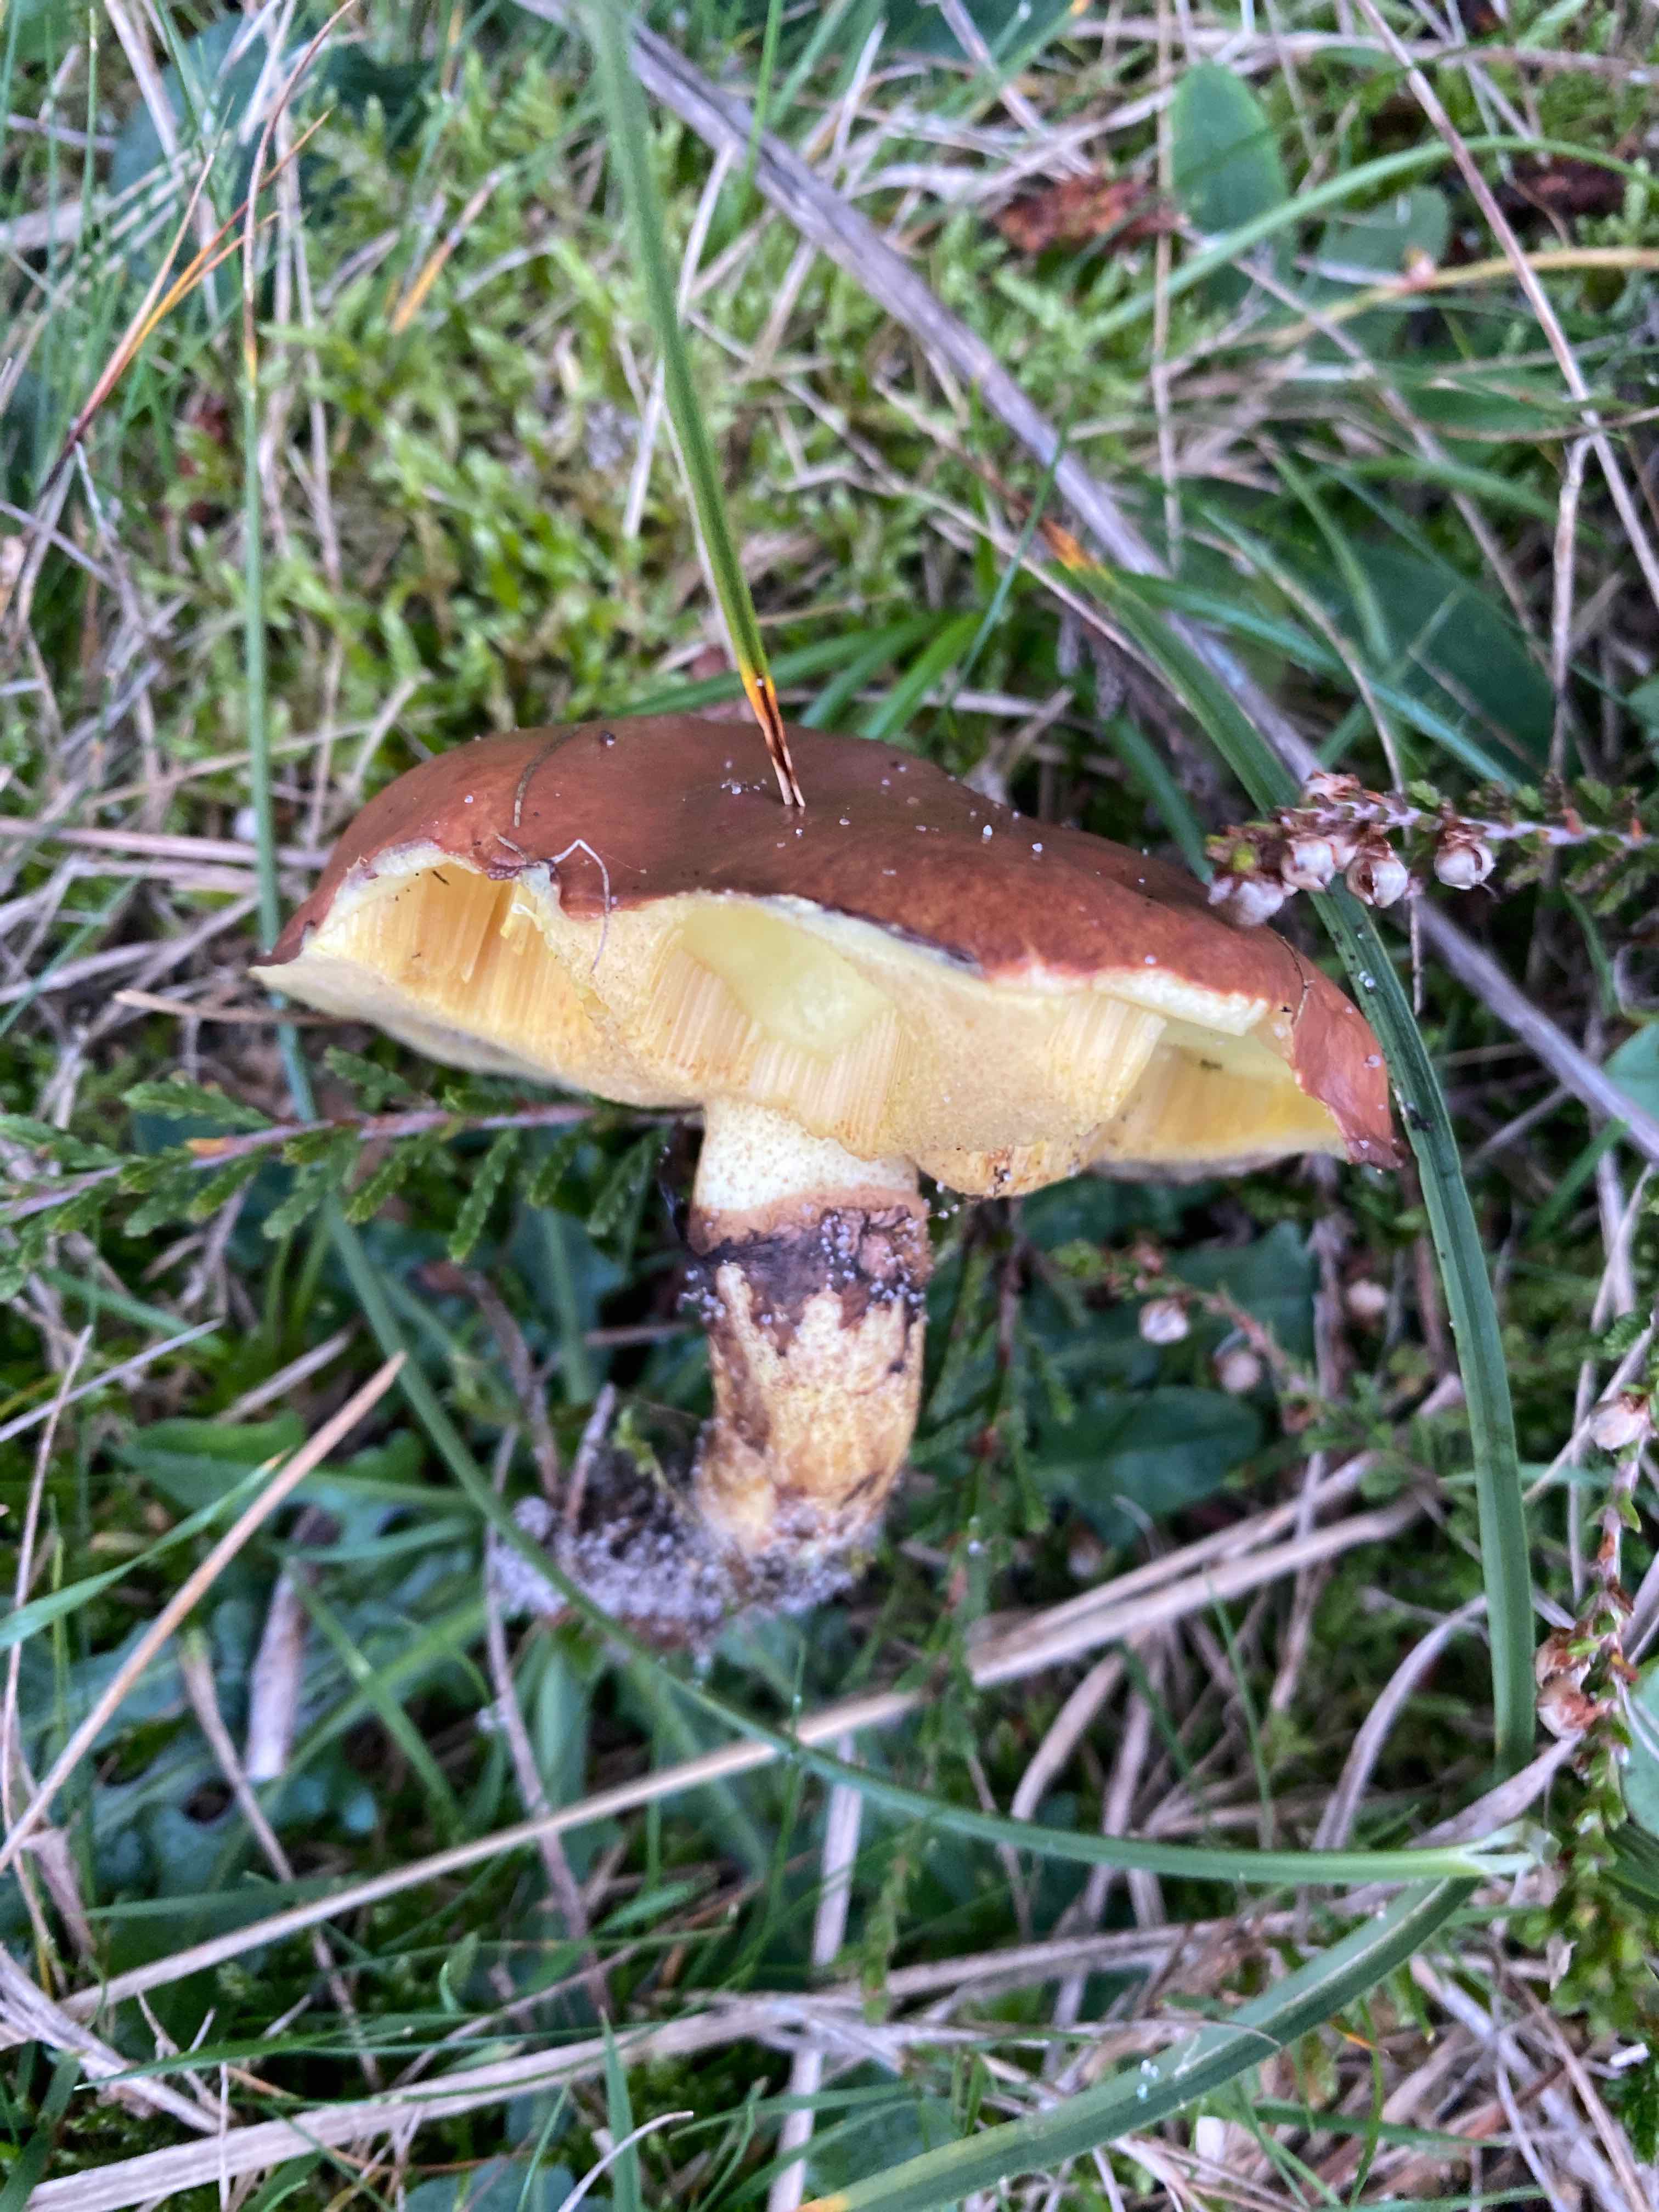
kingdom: Fungi
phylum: Basidiomycota
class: Agaricomycetes
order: Boletales
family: Suillaceae
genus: Suillus
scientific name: Suillus luteus
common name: brungul slimrørhat
